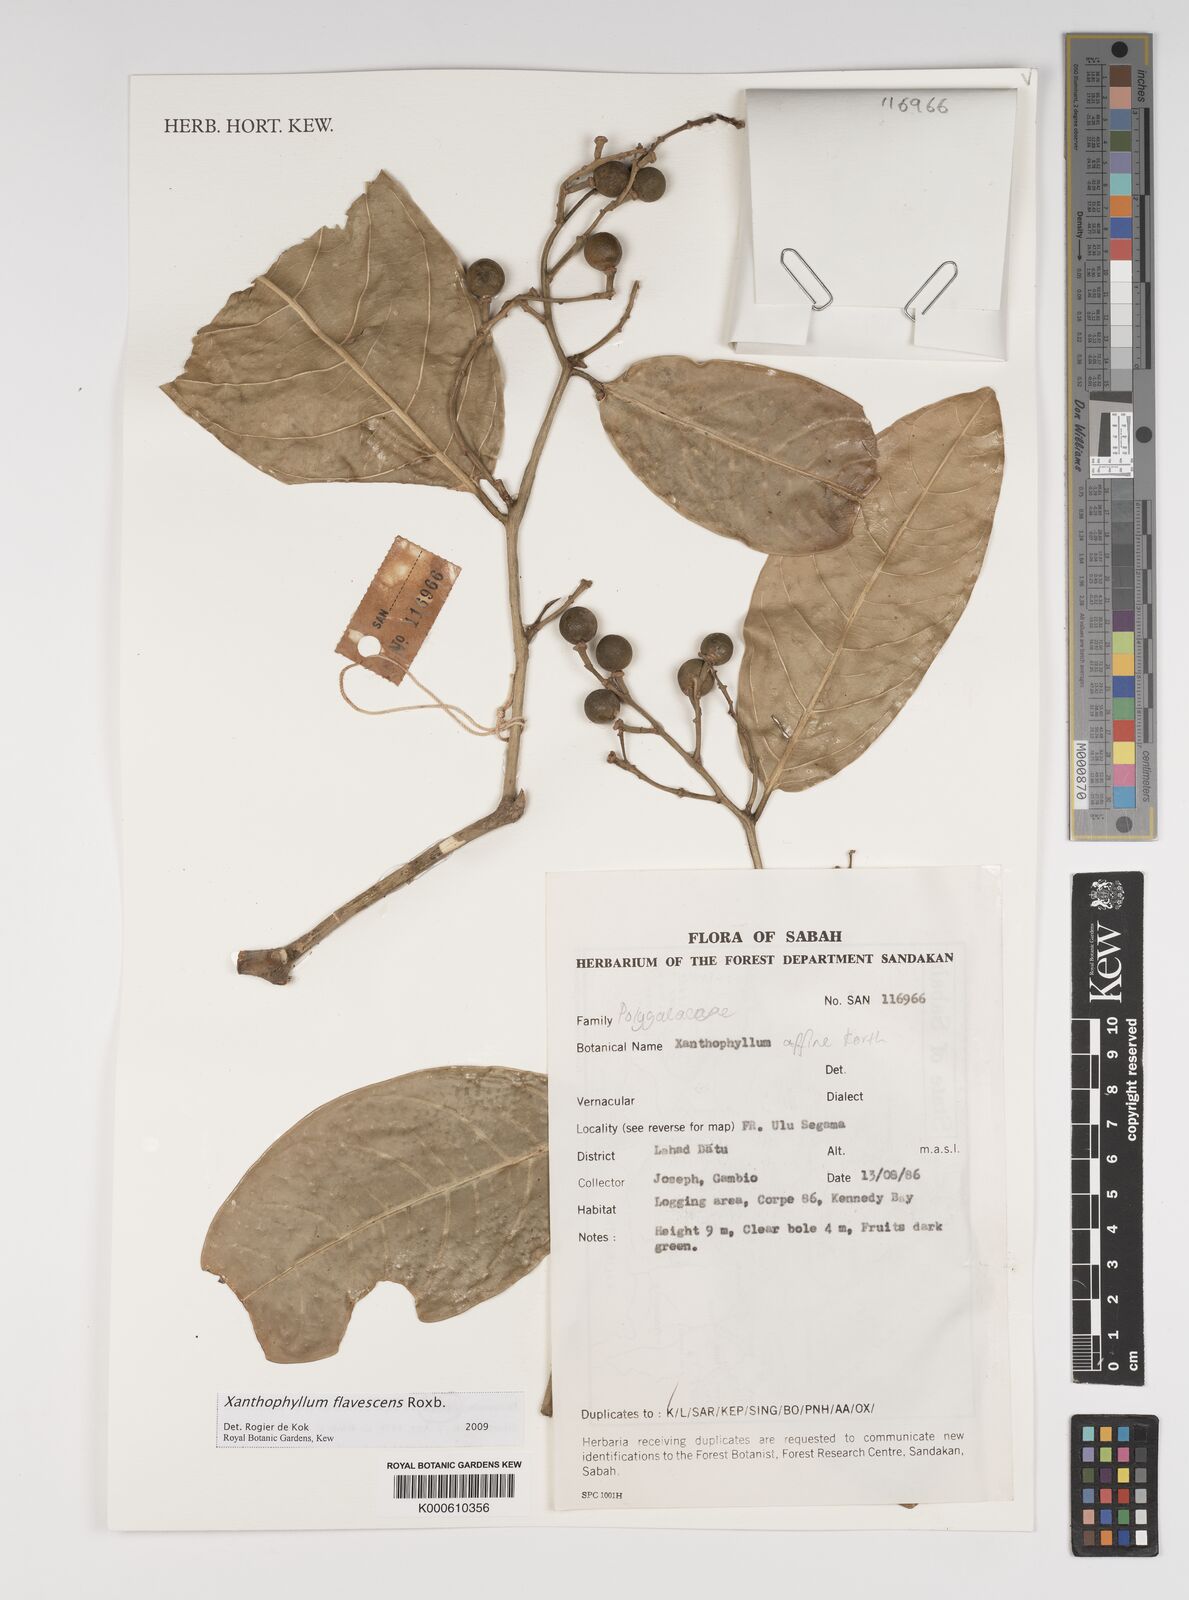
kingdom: Plantae
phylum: Tracheophyta
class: Magnoliopsida
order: Fabales
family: Polygalaceae
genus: Xanthophyllum
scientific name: Xanthophyllum flavescens
